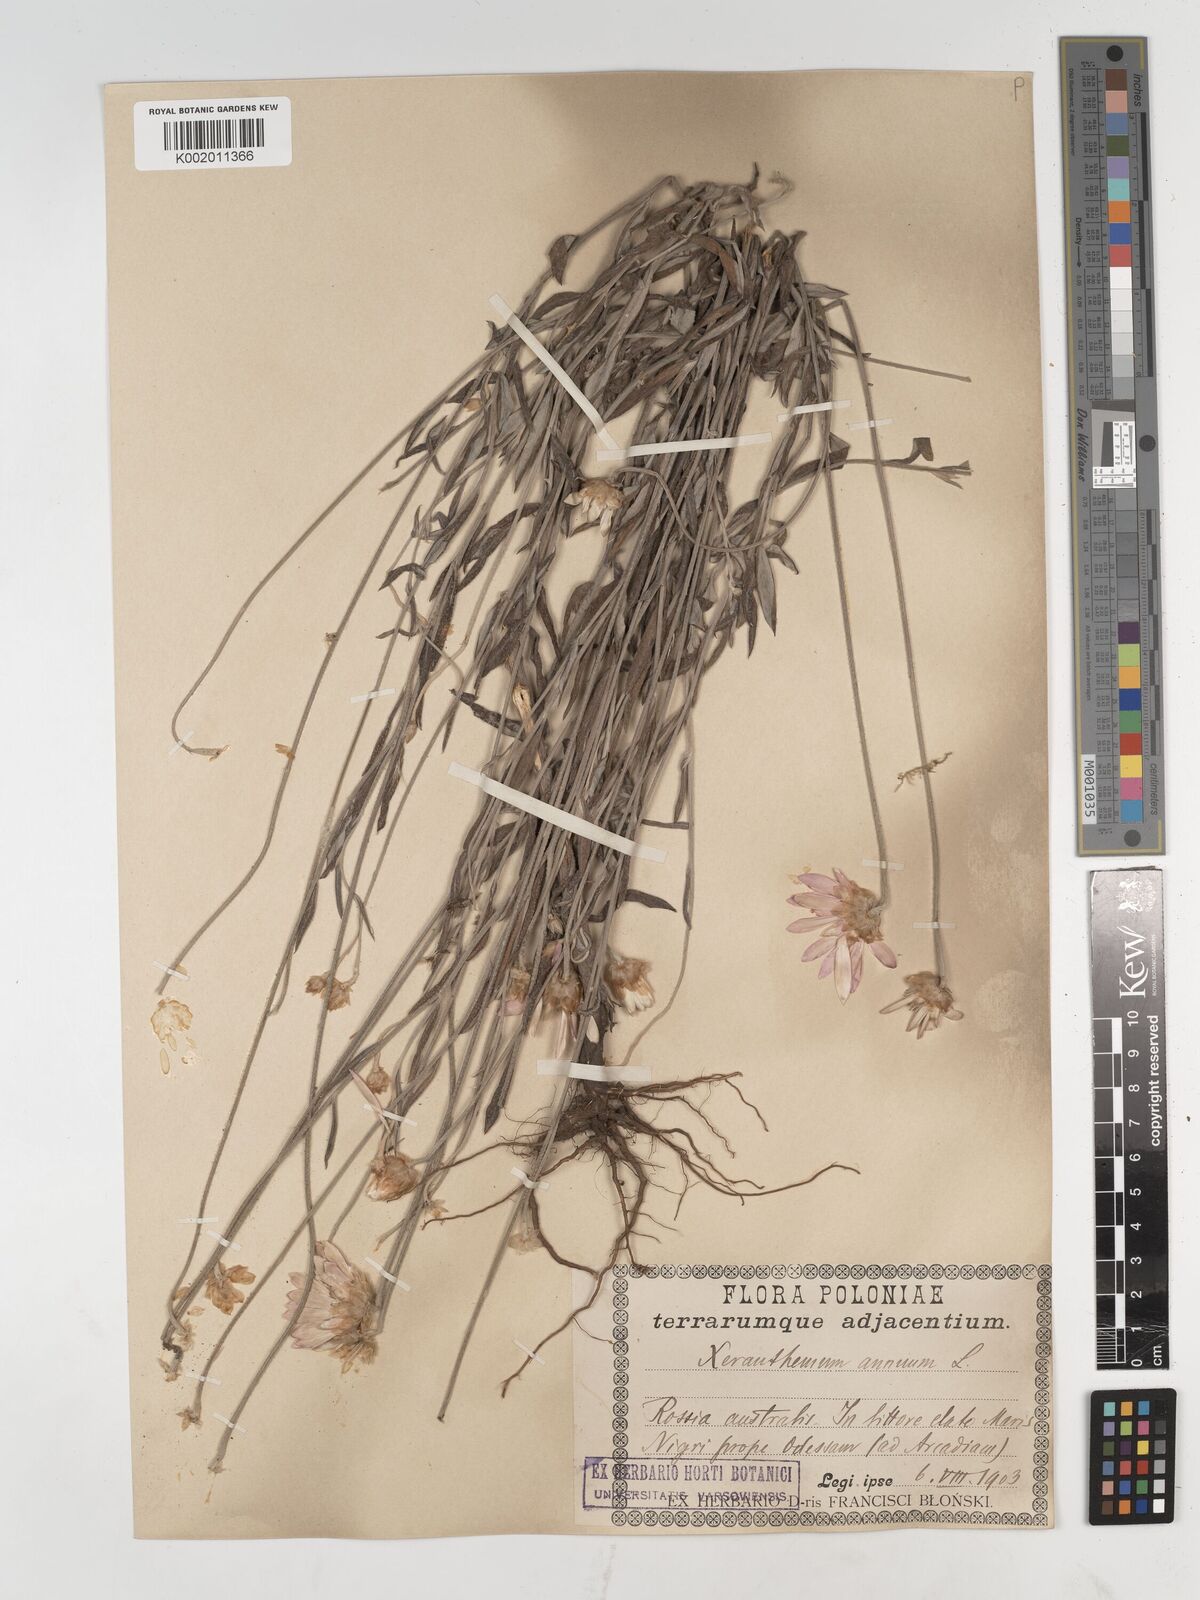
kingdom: Plantae
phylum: Tracheophyta
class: Magnoliopsida
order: Asterales
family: Asteraceae
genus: Xeranthemum
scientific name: Xeranthemum annuum
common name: Immortelle
